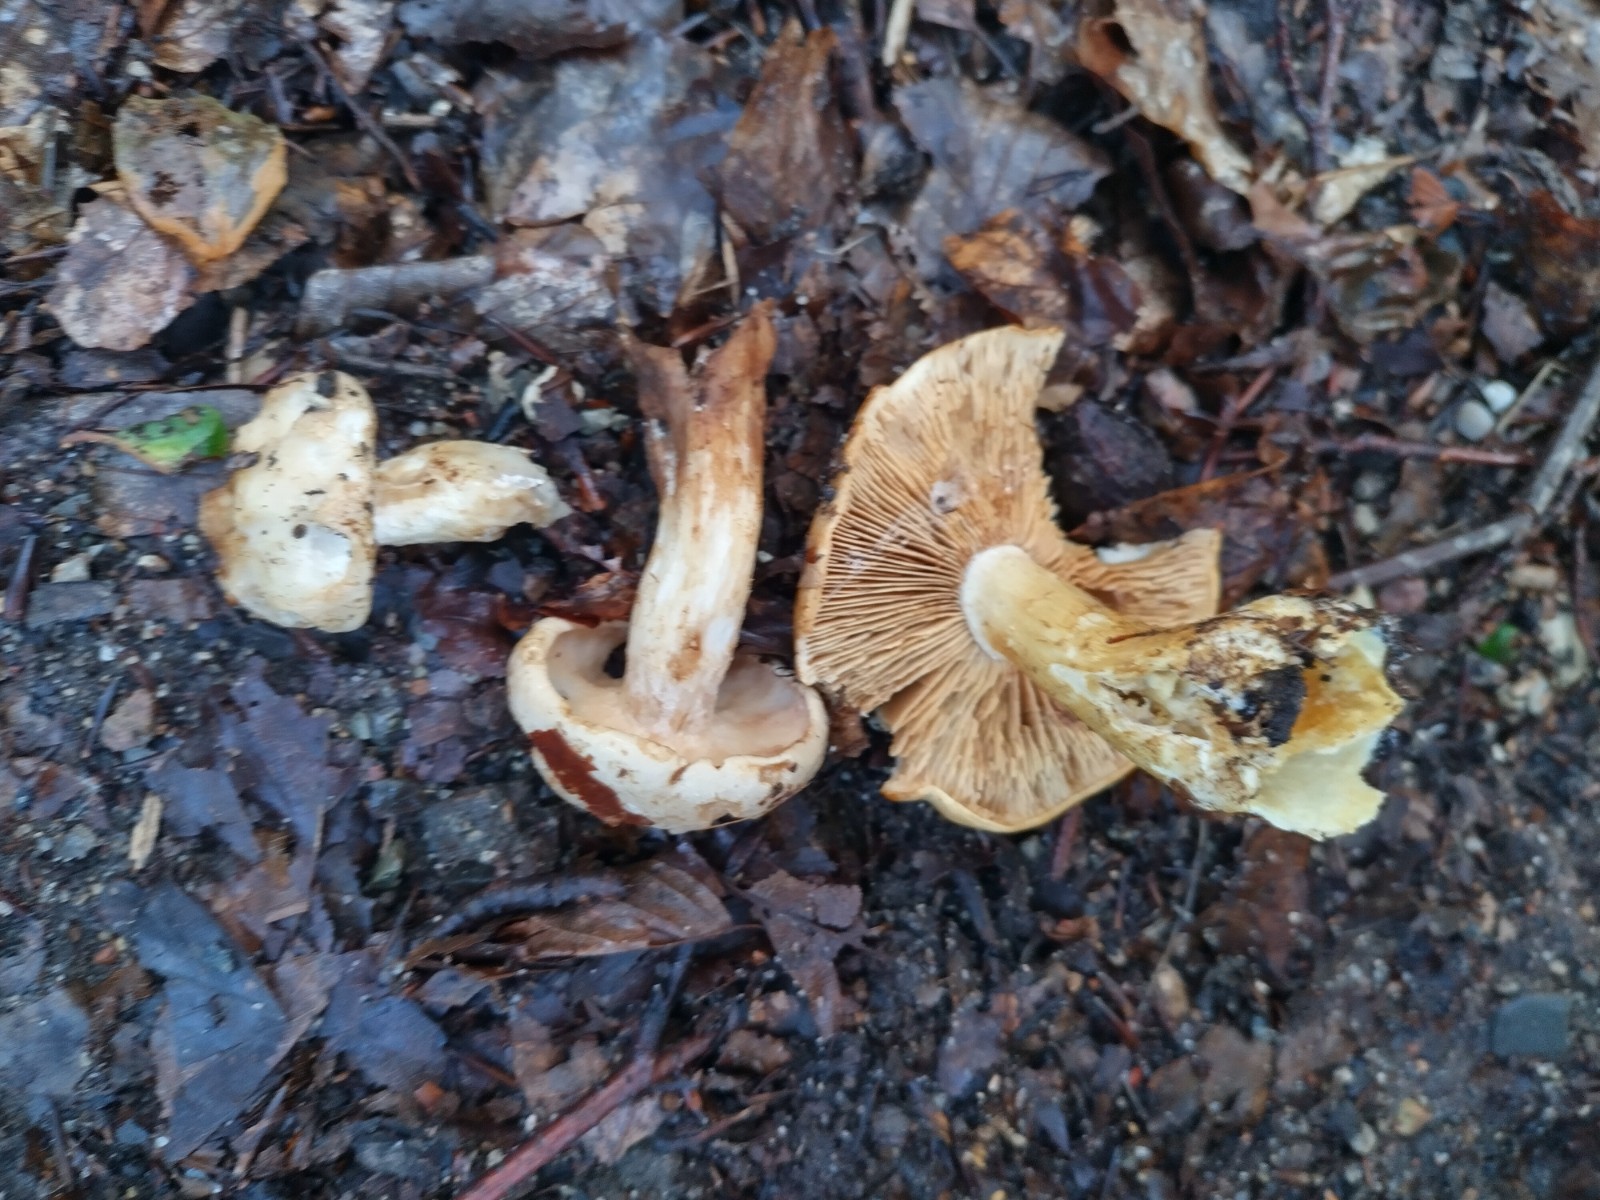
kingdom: Fungi
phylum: Basidiomycota
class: Agaricomycetes
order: Agaricales
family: Hymenogastraceae
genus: Hebeloma
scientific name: Hebeloma laterinum
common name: kakao-tåreblad
